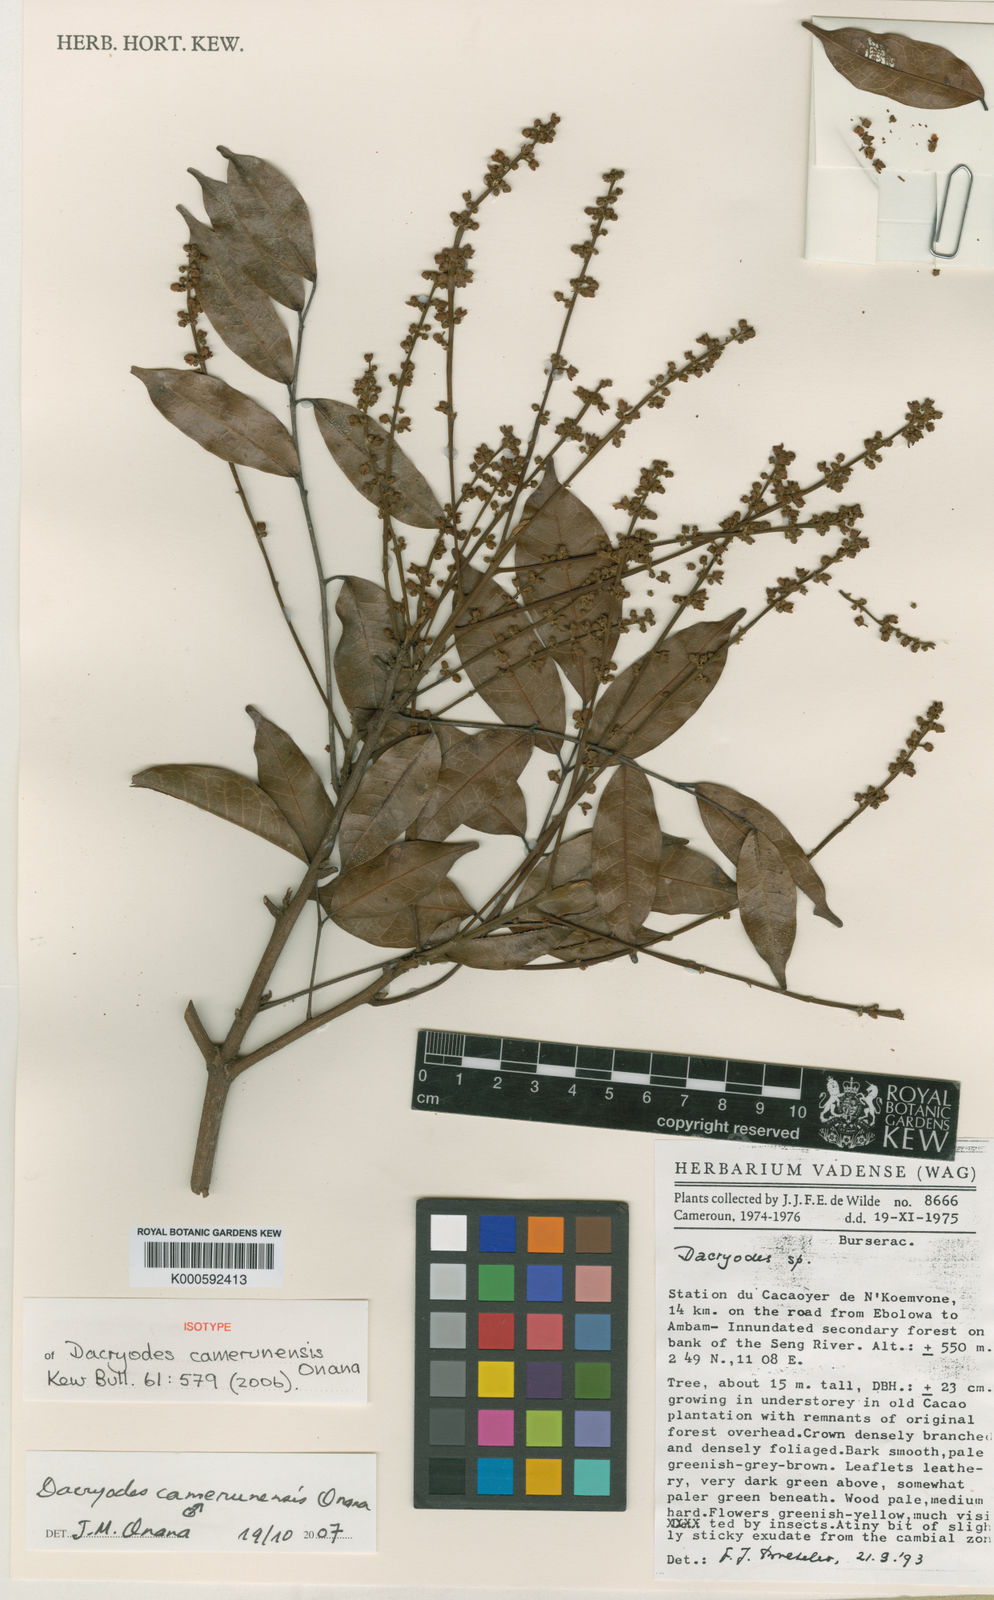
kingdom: Plantae
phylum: Tracheophyta
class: Magnoliopsida
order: Sapindales
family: Burseraceae
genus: Pachylobus
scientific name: Pachylobus camerunensis
